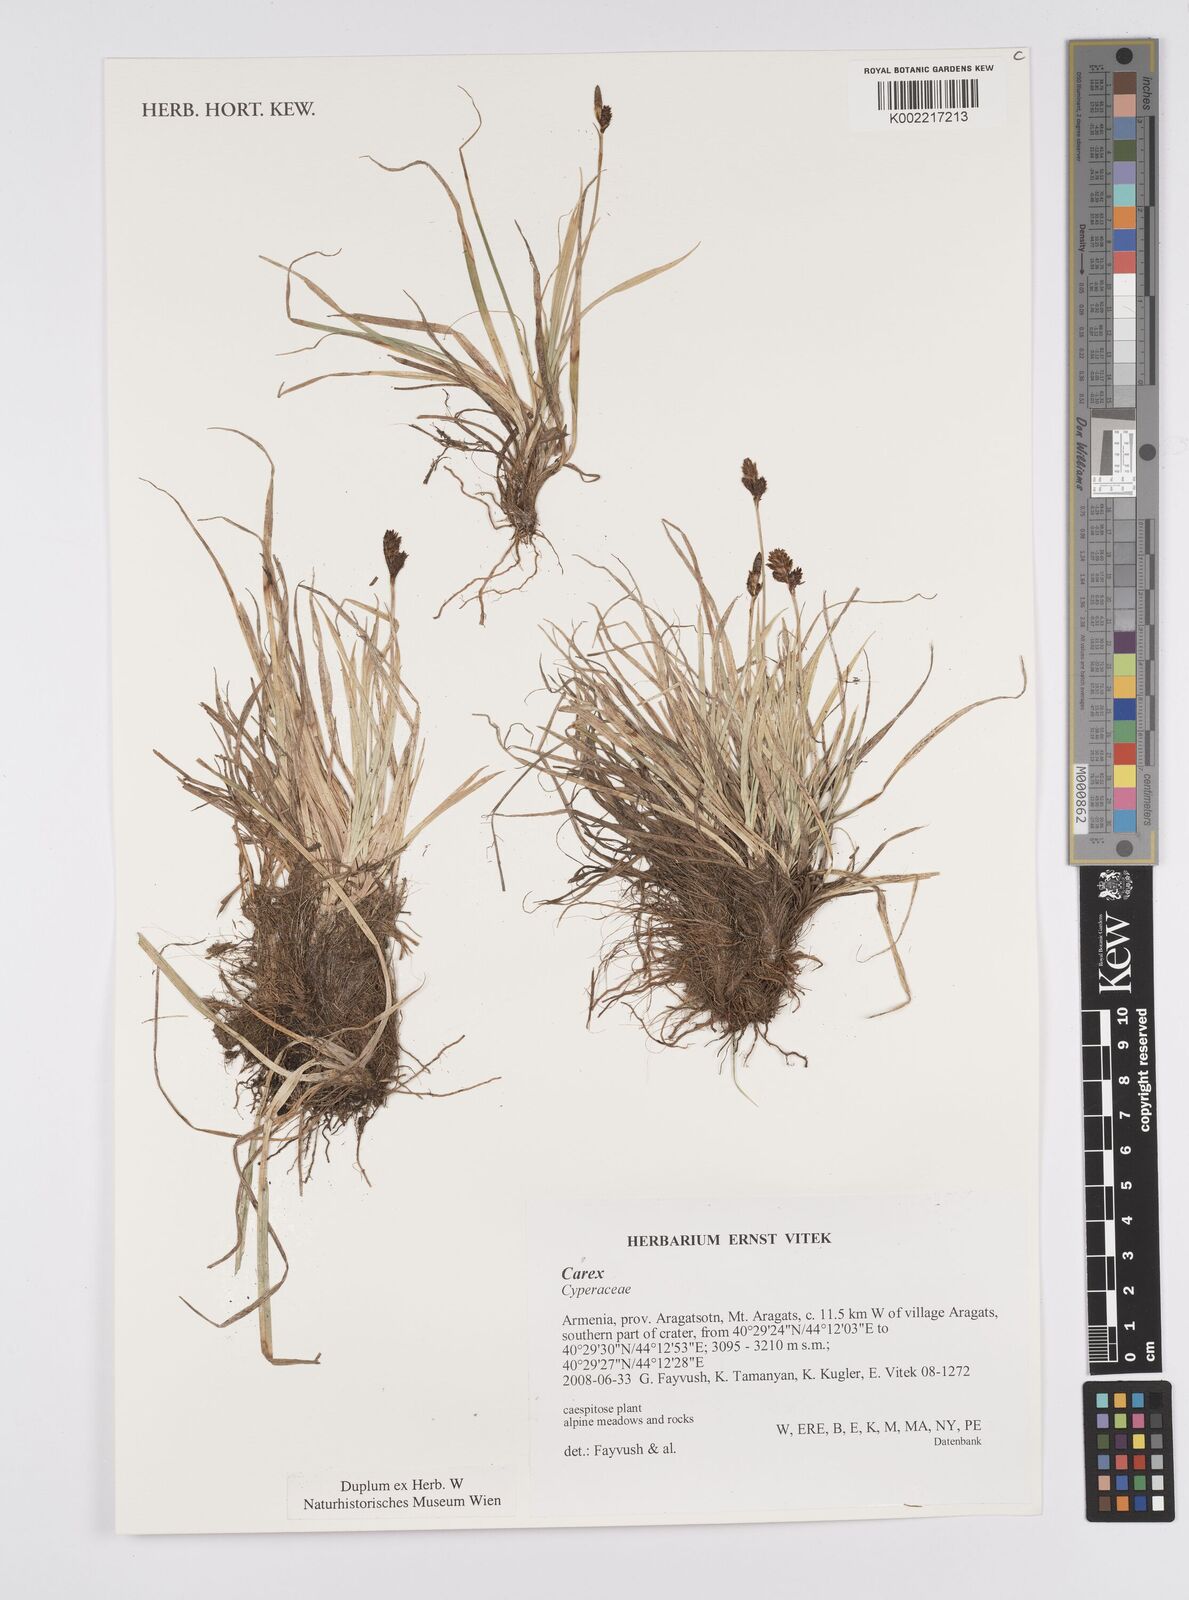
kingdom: Plantae
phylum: Tracheophyta
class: Liliopsida
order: Poales
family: Cyperaceae
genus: Carex
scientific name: Carex
